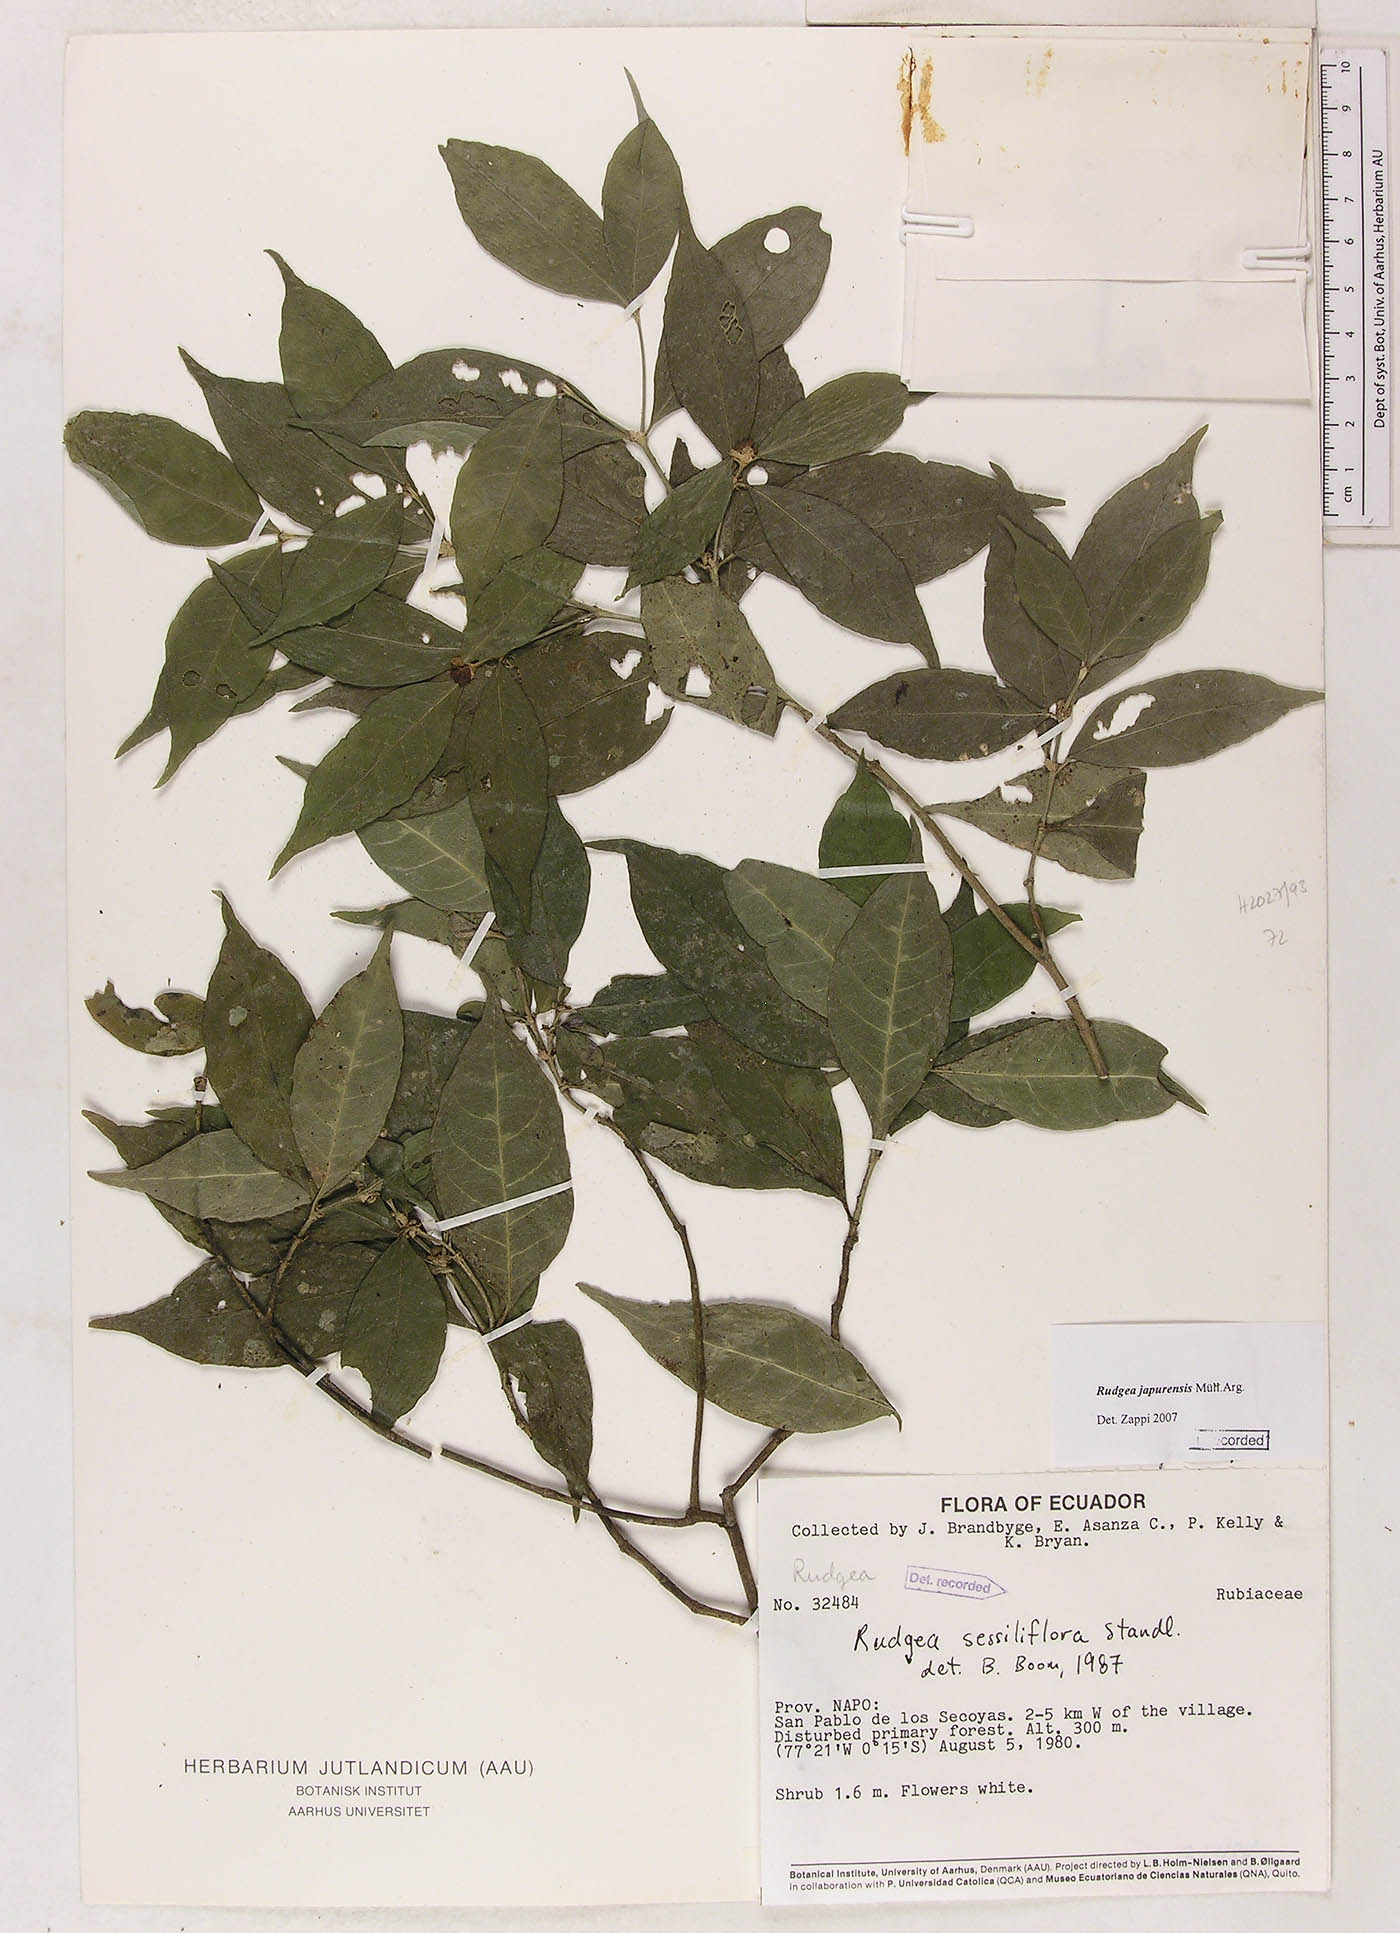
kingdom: Plantae
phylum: Tracheophyta
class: Magnoliopsida
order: Gentianales
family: Rubiaceae
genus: Rudgea
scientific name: Rudgea panurensis
